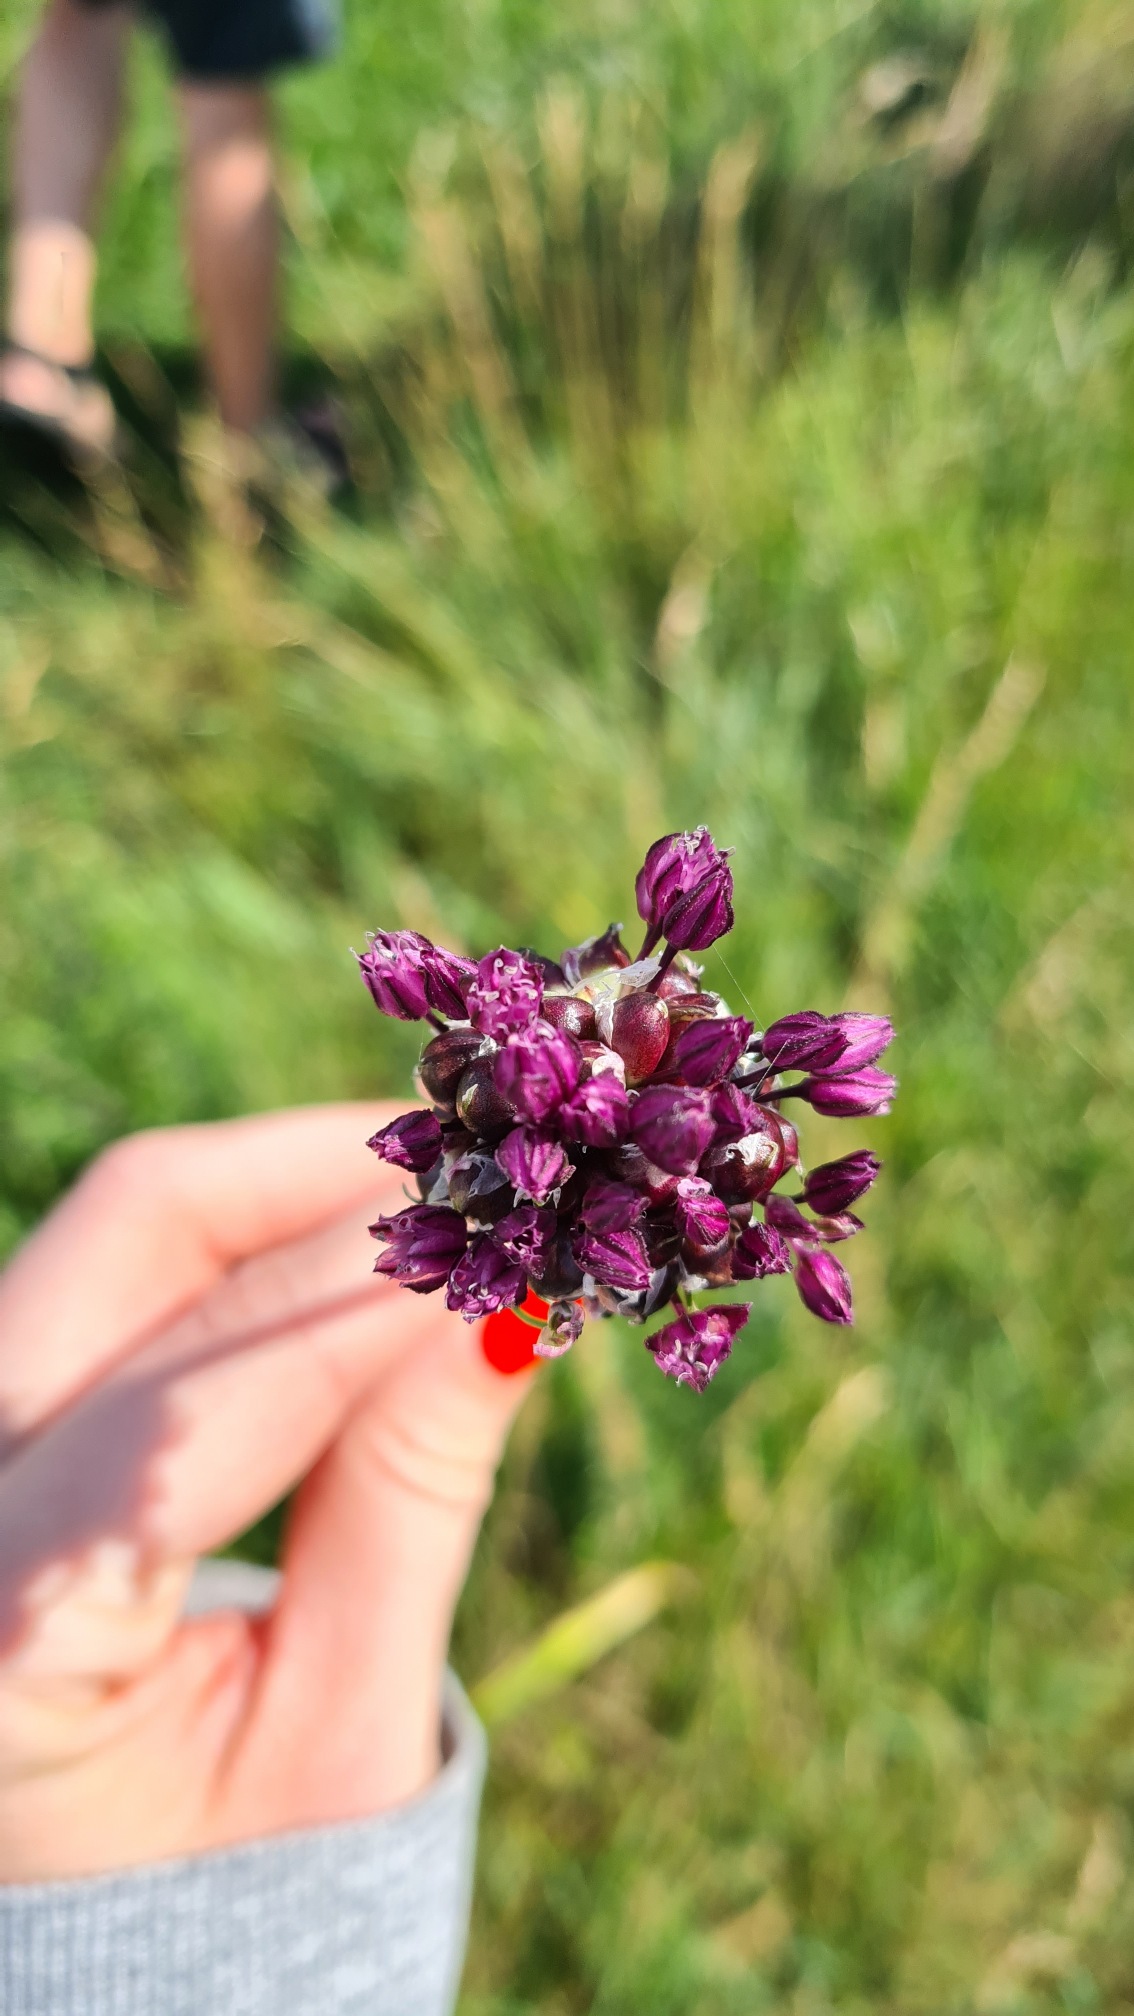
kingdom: Plantae
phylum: Tracheophyta
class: Liliopsida
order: Asparagales
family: Amaryllidaceae
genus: Allium
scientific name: Allium scorodoprasum
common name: Skov-løg
